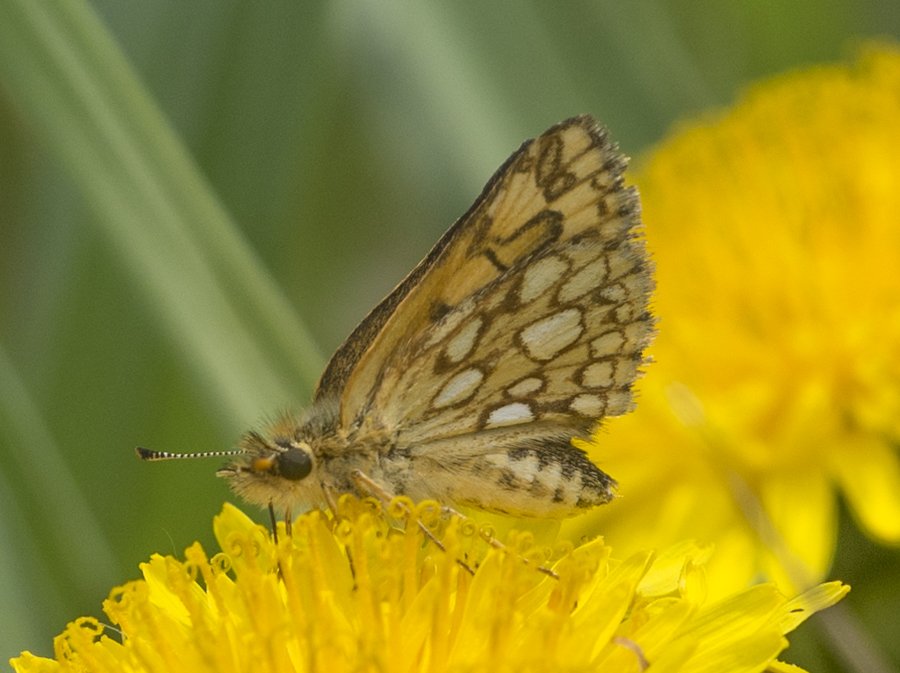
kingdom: Animalia
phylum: Arthropoda
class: Insecta
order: Lepidoptera
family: Hesperiidae
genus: Carterocephalus
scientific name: Carterocephalus palaemon
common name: Chequered Skipper
